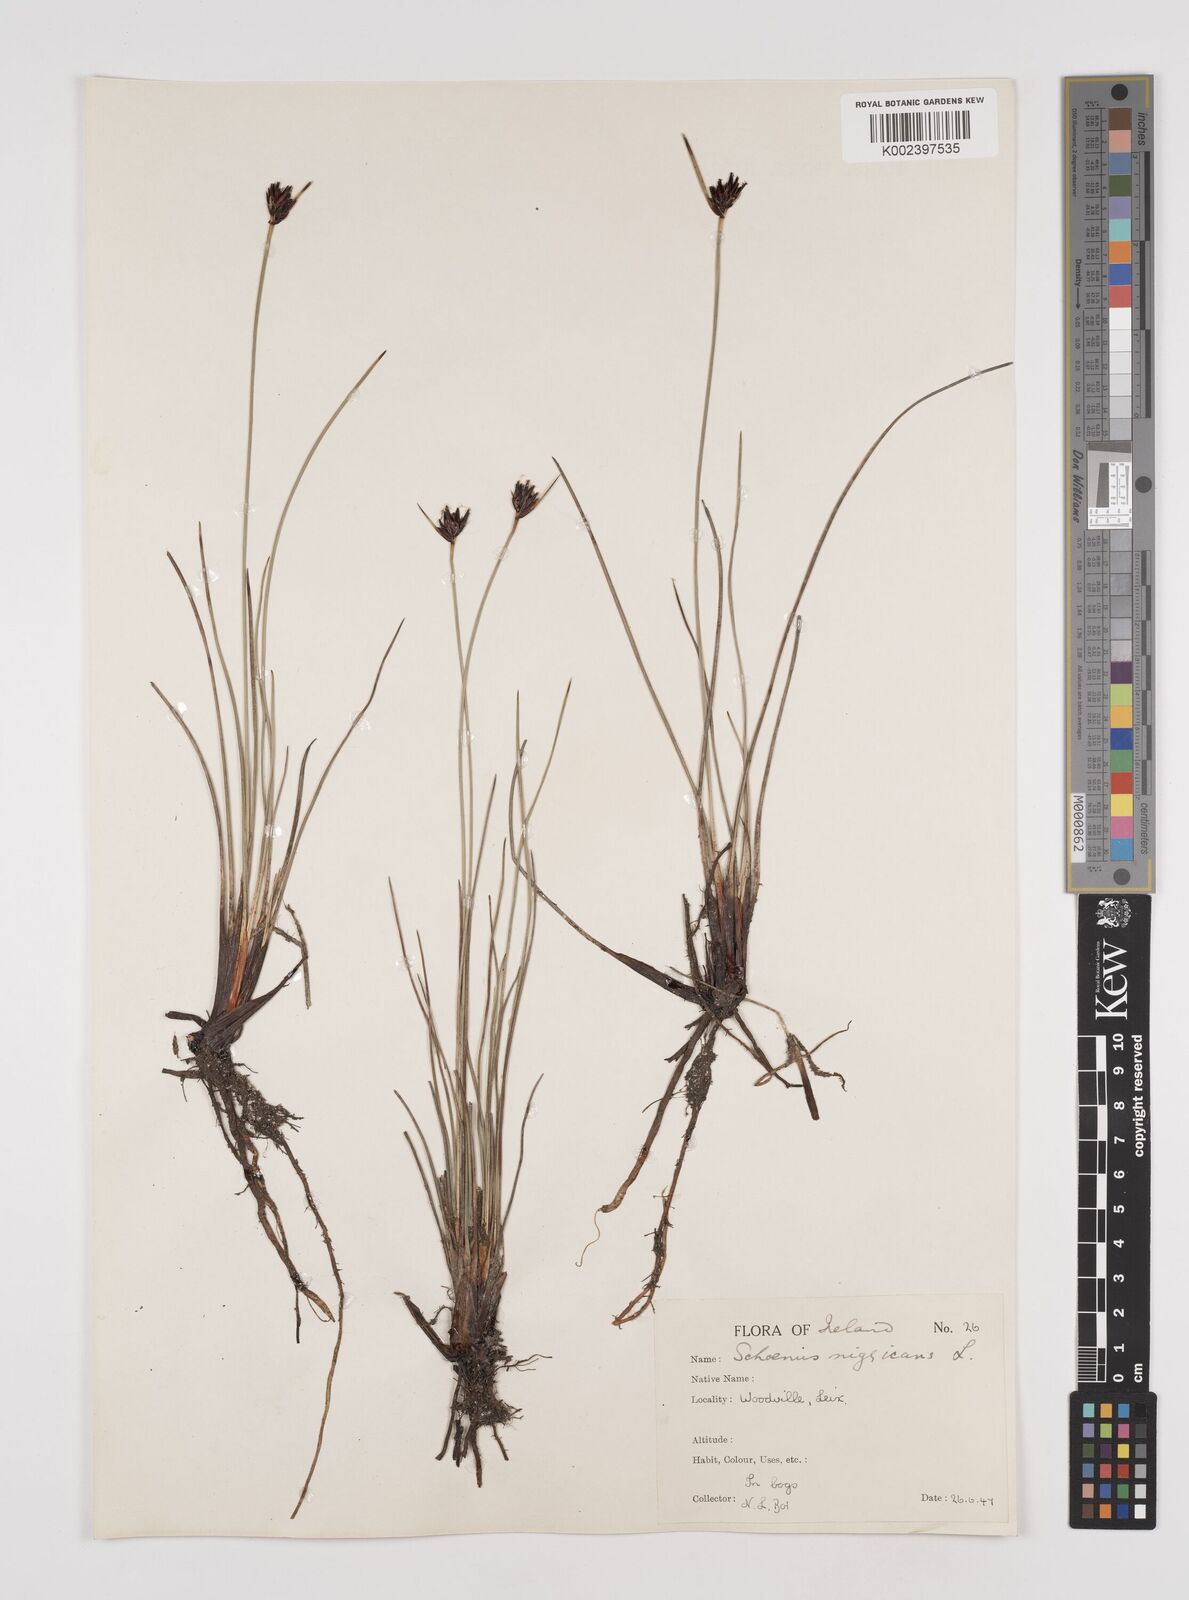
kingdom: Plantae
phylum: Tracheophyta
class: Liliopsida
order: Poales
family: Cyperaceae
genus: Schoenus
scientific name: Schoenus nigricans
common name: Black bog-rush
